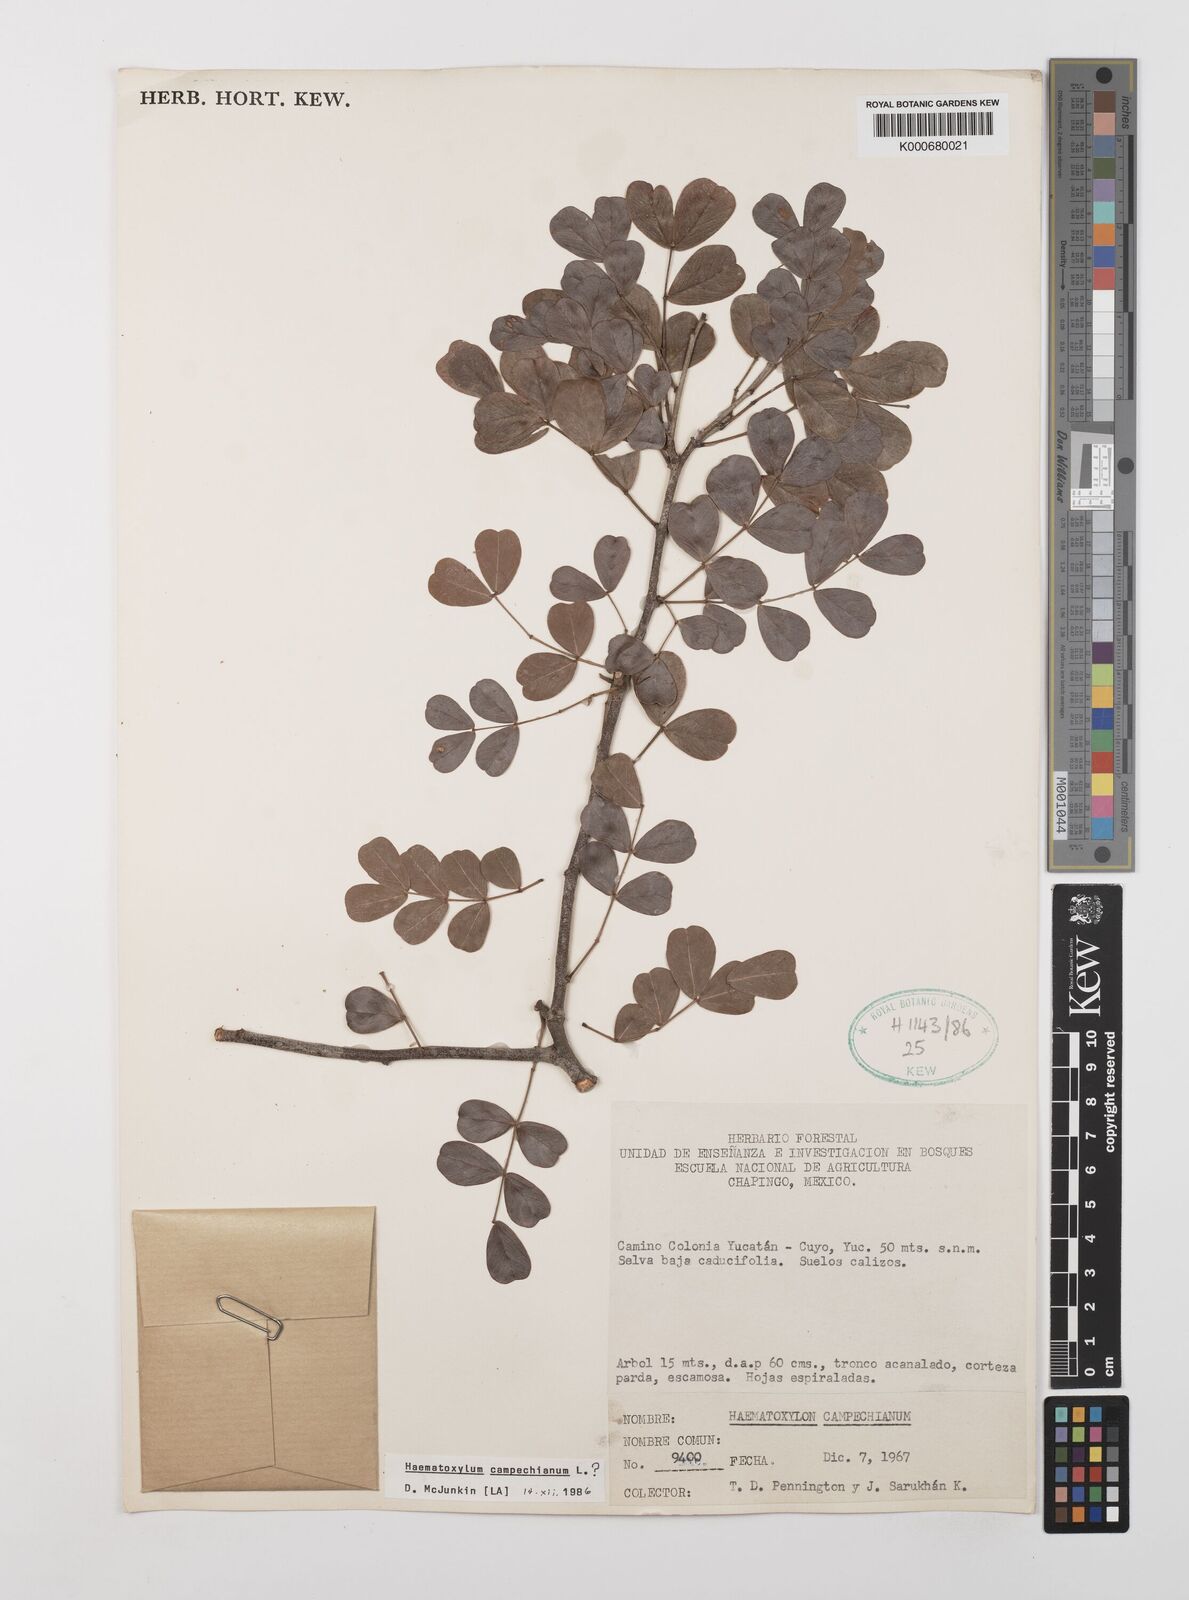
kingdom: Plantae
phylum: Tracheophyta
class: Magnoliopsida
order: Fabales
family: Fabaceae
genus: Haematoxylum
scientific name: Haematoxylum
